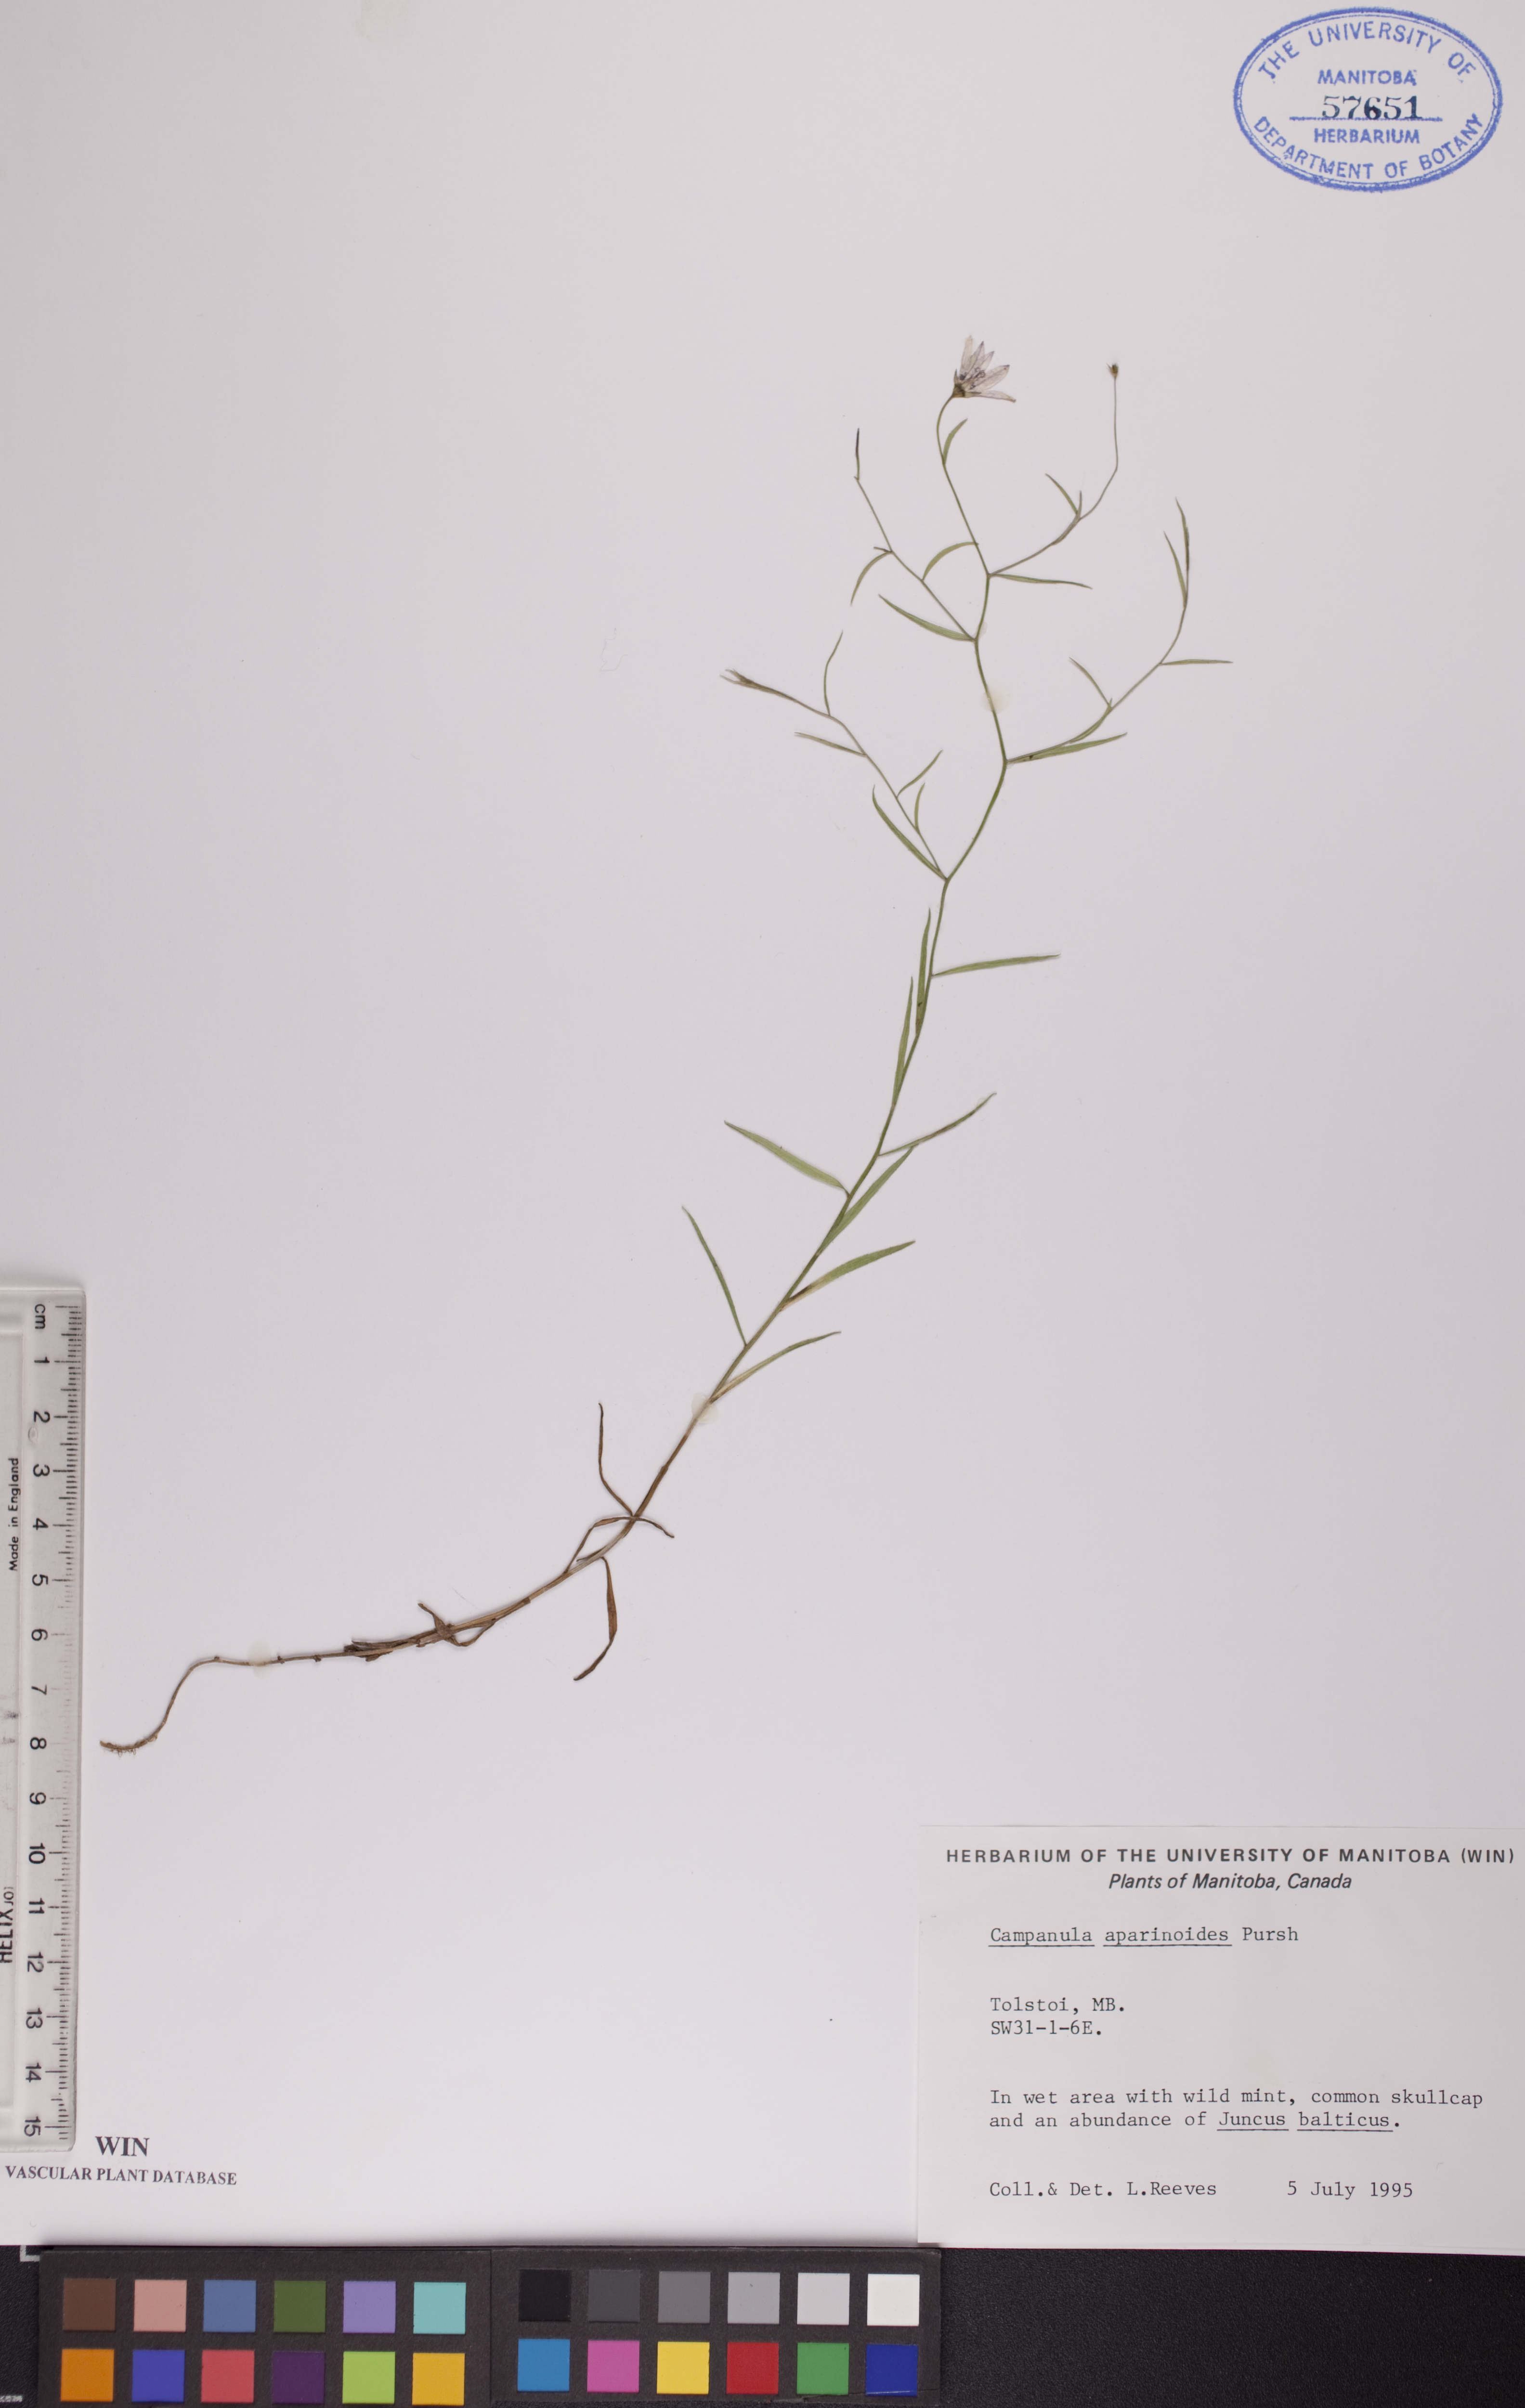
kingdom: Plantae
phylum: Tracheophyta
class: Magnoliopsida
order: Asterales
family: Campanulaceae
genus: Palustricodon
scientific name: Palustricodon aparinoides
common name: Bedstraw bellflower
